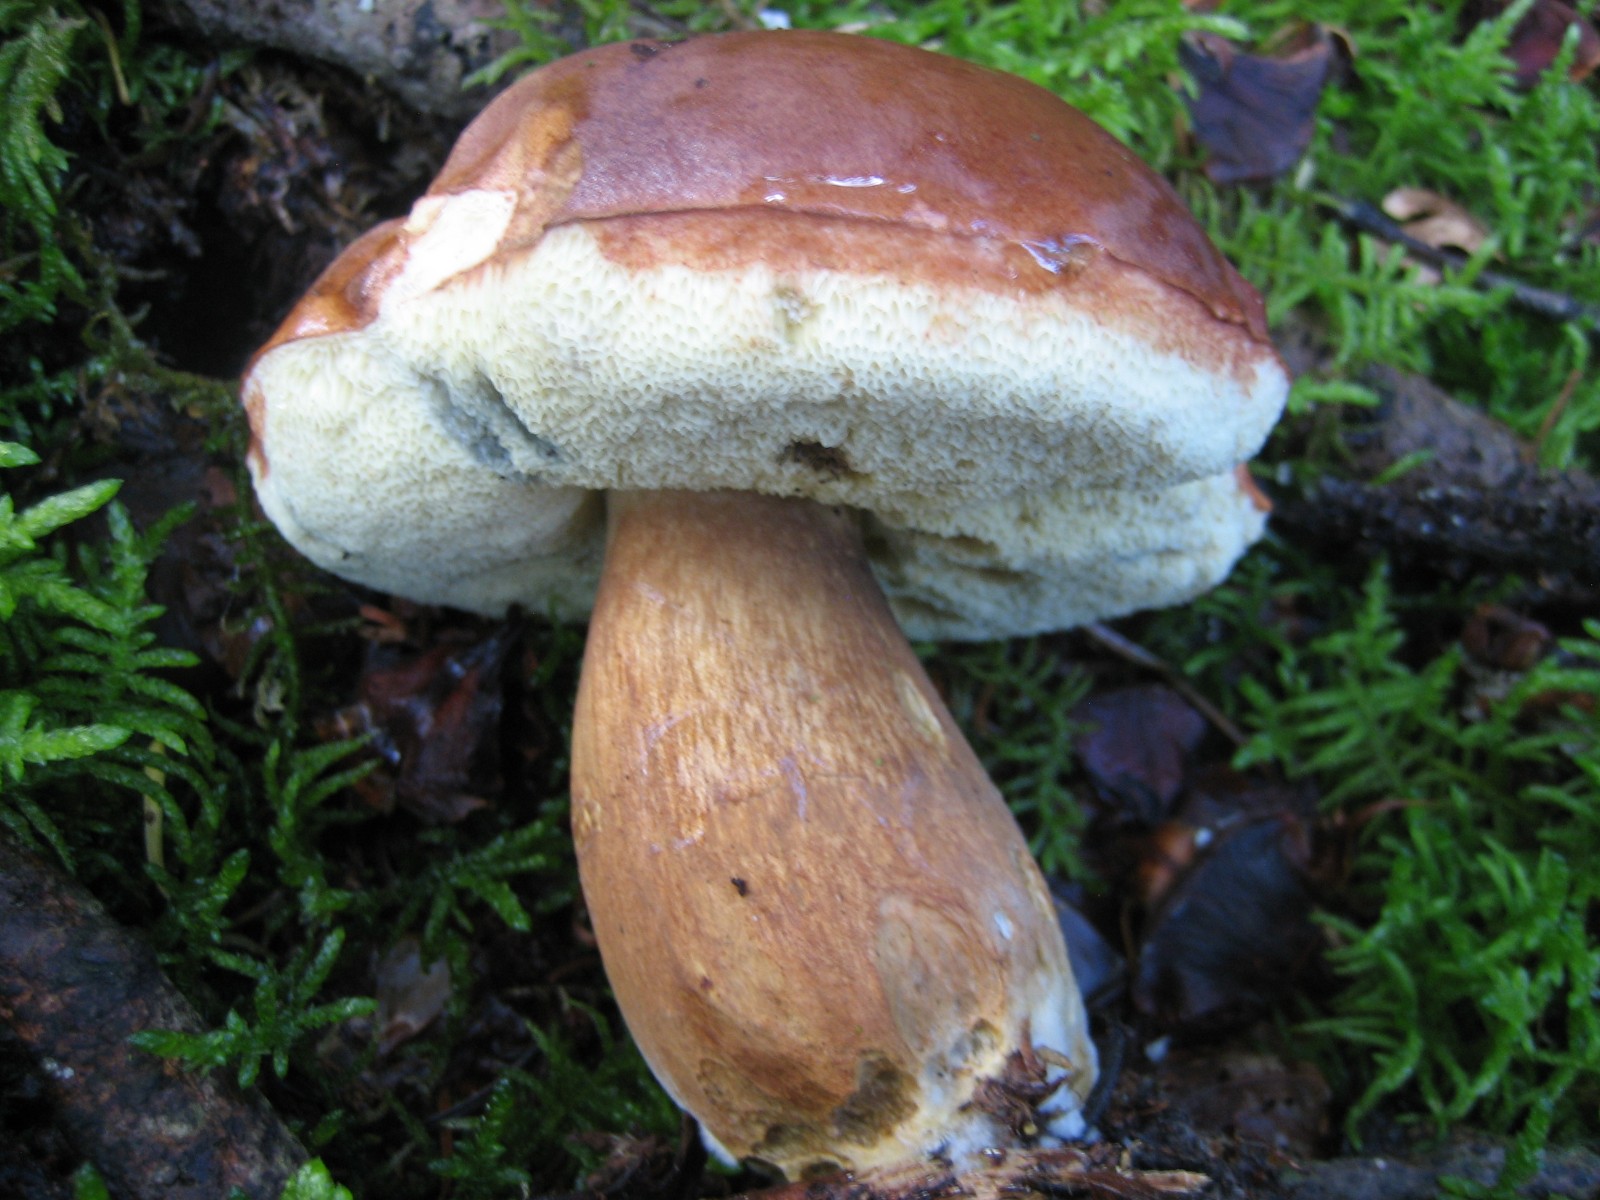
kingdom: Fungi
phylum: Basidiomycota
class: Agaricomycetes
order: Boletales
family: Boletaceae
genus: Imleria
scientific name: Imleria badia
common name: brunstokket rørhat
